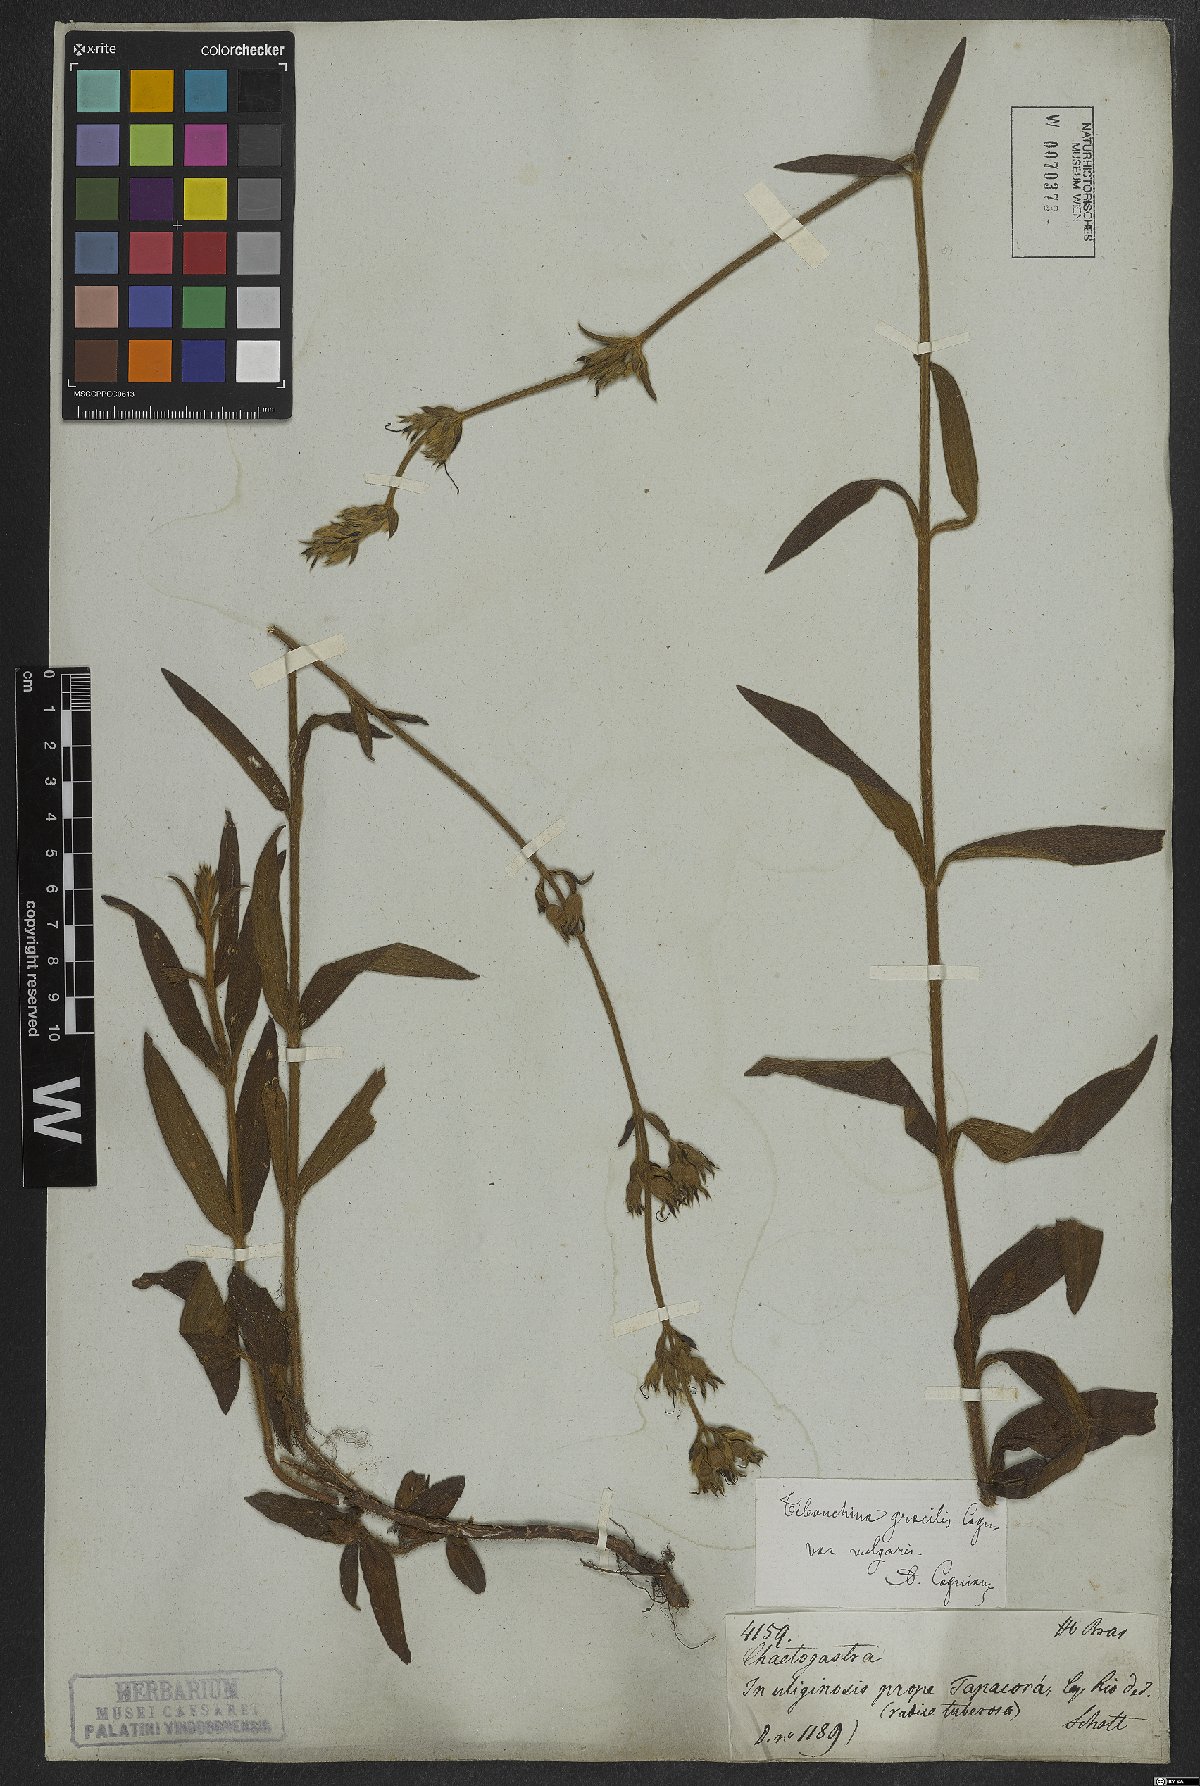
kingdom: Plantae
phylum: Tracheophyta
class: Magnoliopsida
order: Myrtales
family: Melastomataceae
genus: Chaetogastra
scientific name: Chaetogastra gracilis
